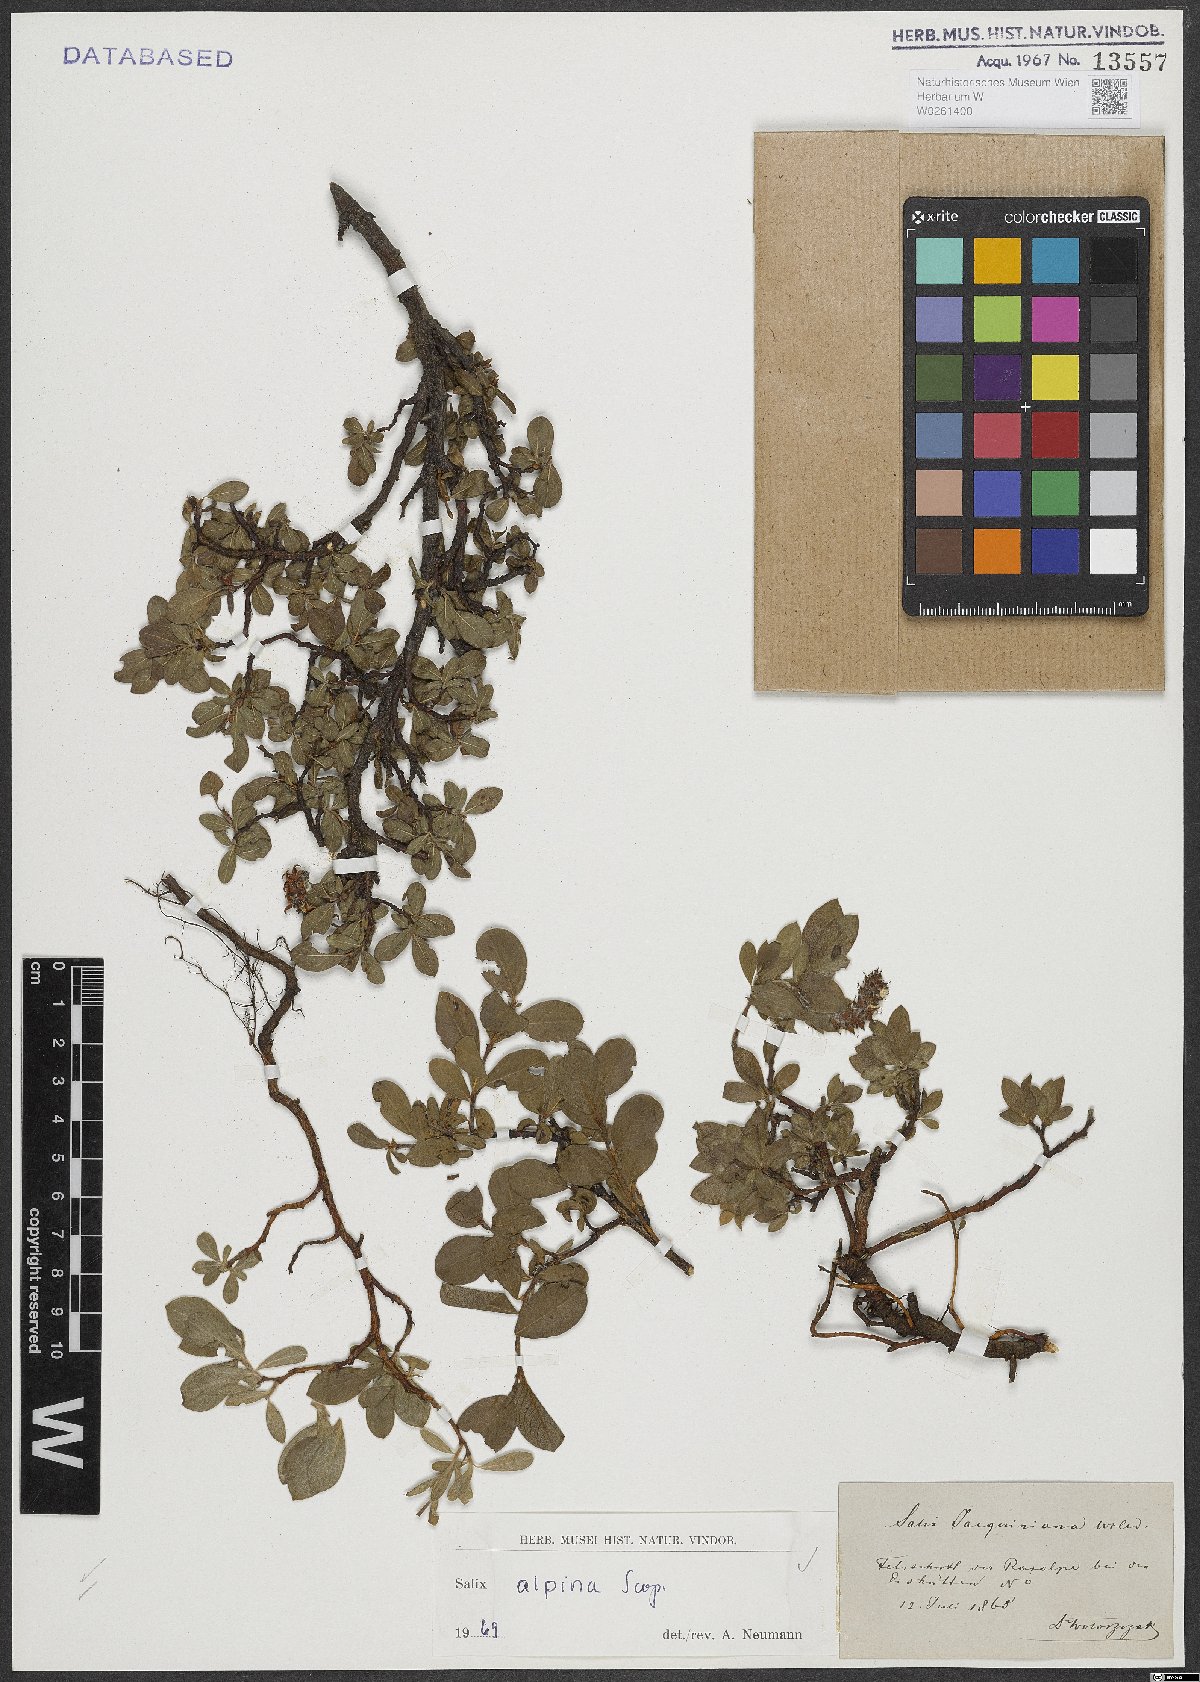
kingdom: Plantae
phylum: Tracheophyta
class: Magnoliopsida
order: Malpighiales
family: Salicaceae
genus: Salix
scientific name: Salix alpina
